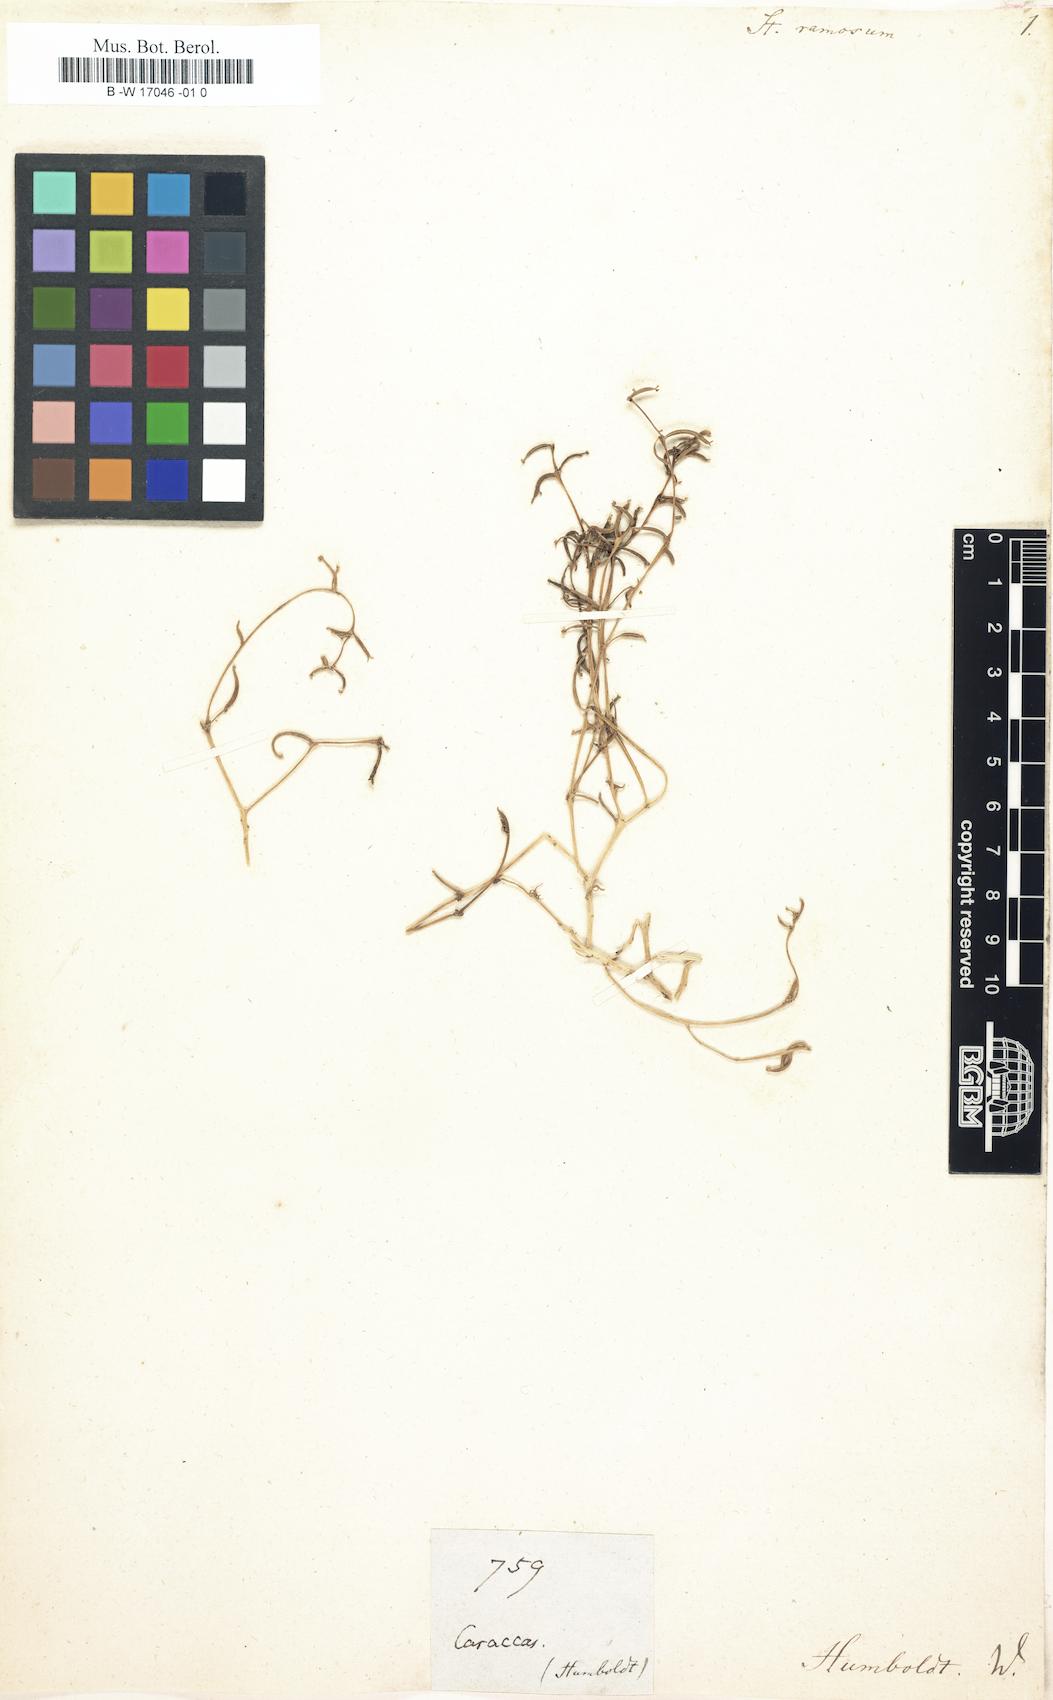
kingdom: Plantae
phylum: Tracheophyta
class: Magnoliopsida
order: Asterales
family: Stylidiaceae
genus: Stylidium
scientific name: Stylidium ramosum
